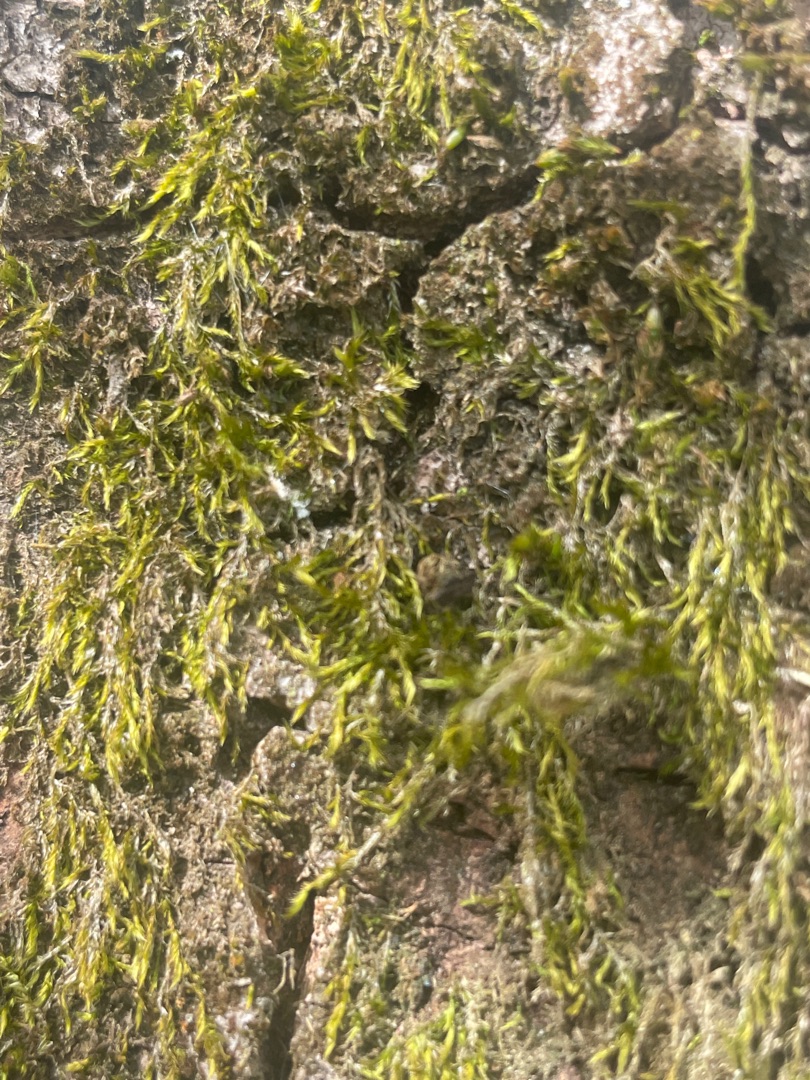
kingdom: Plantae
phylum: Bryophyta
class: Bryopsida
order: Hypnales
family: Hypnaceae
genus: Hypnum
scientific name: Hypnum
